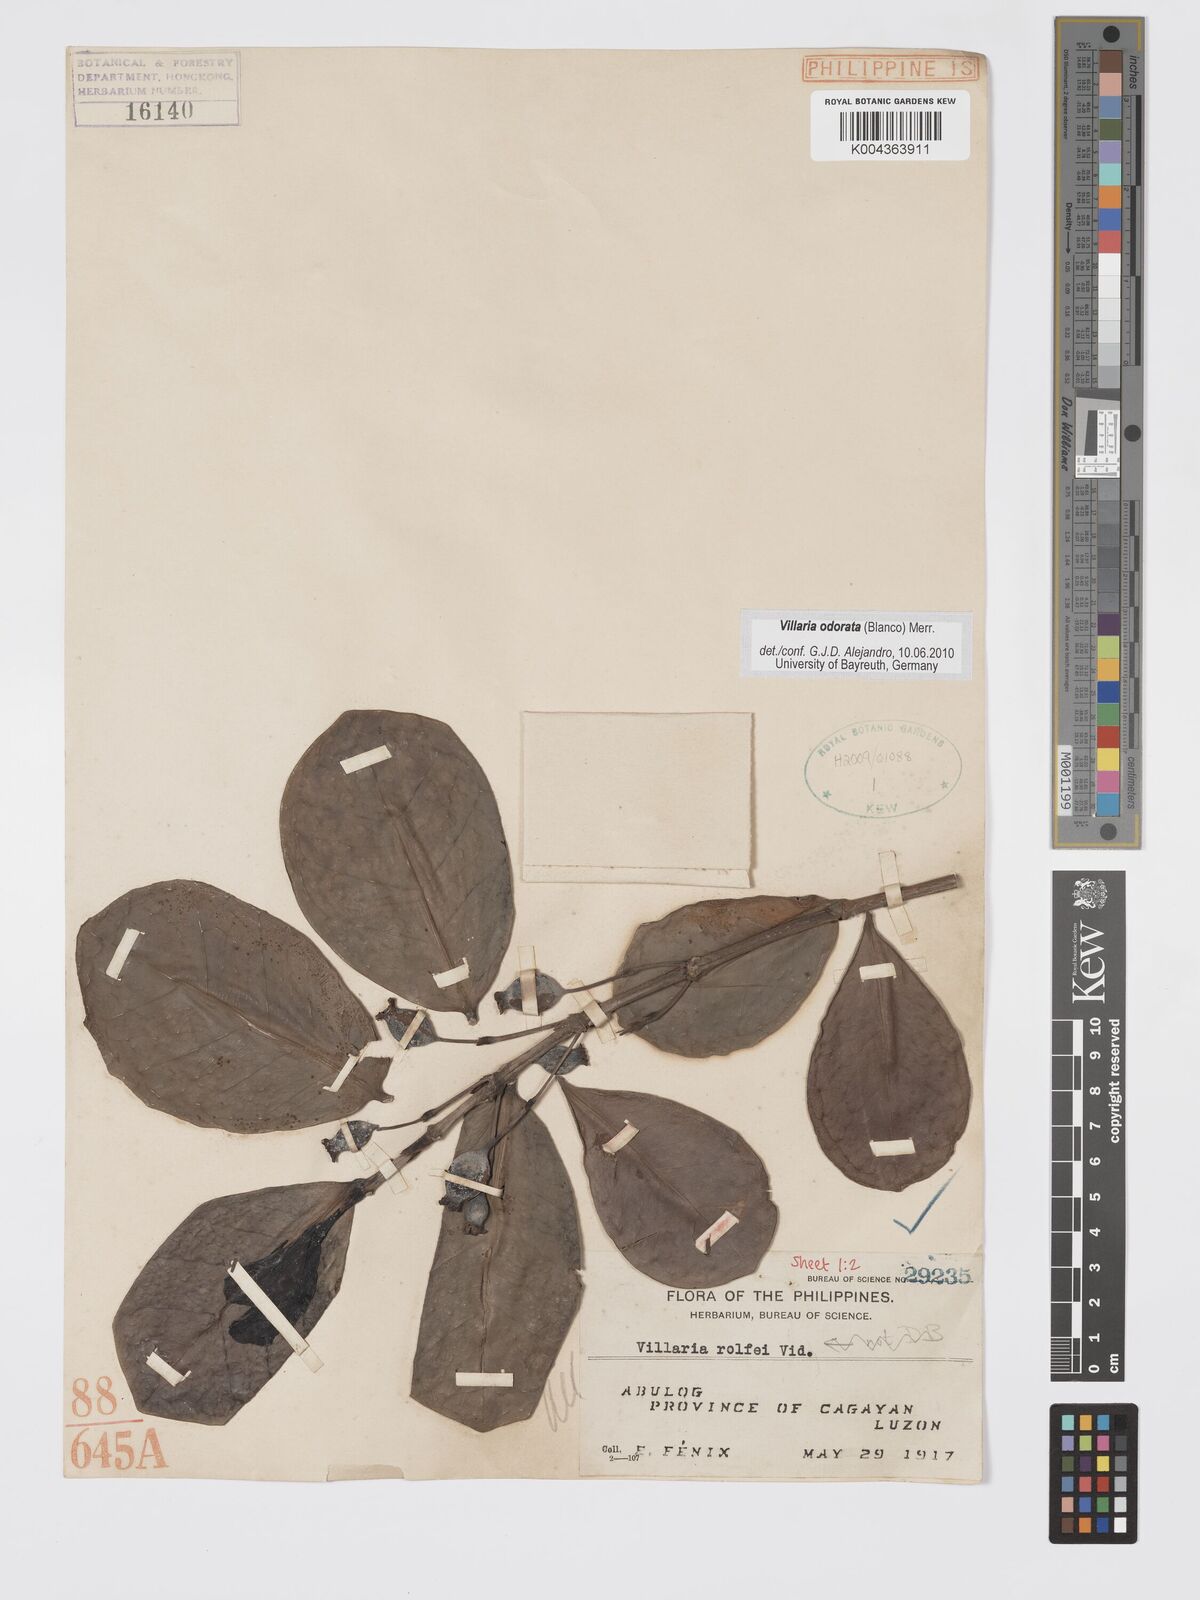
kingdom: Plantae
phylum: Tracheophyta
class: Magnoliopsida
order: Gentianales
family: Rubiaceae
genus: Villaria
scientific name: Villaria odorata
